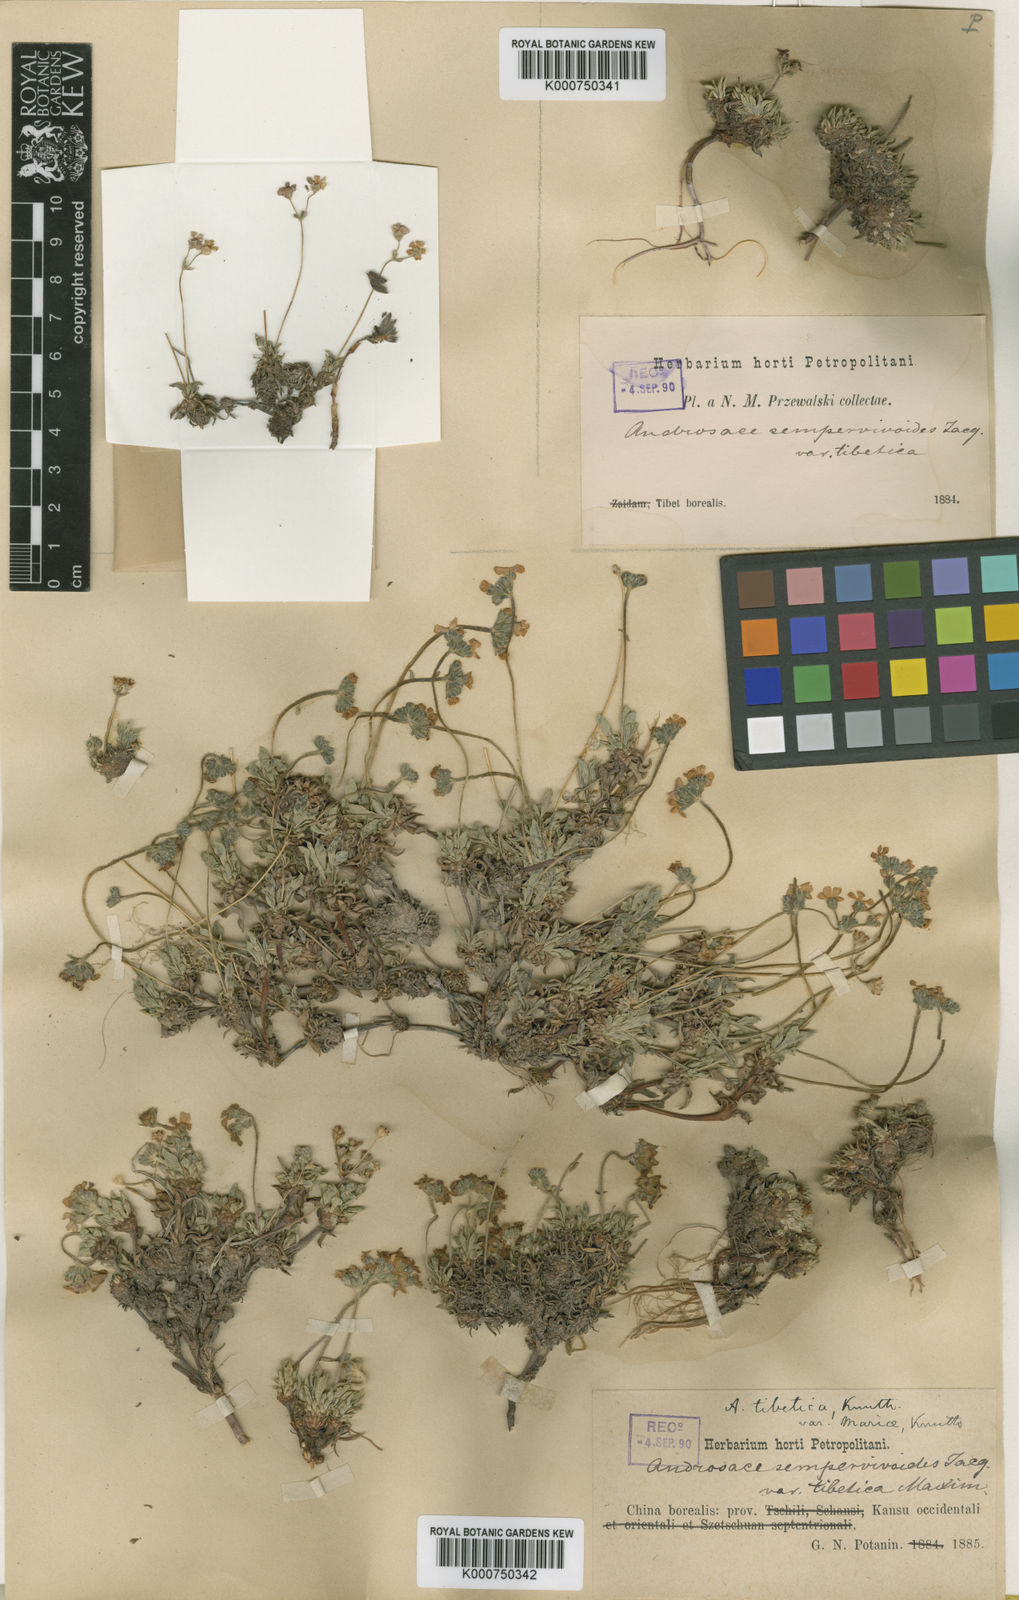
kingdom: Plantae
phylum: Tracheophyta
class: Magnoliopsida
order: Ericales
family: Primulaceae
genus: Androsace
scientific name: Androsace mariae
